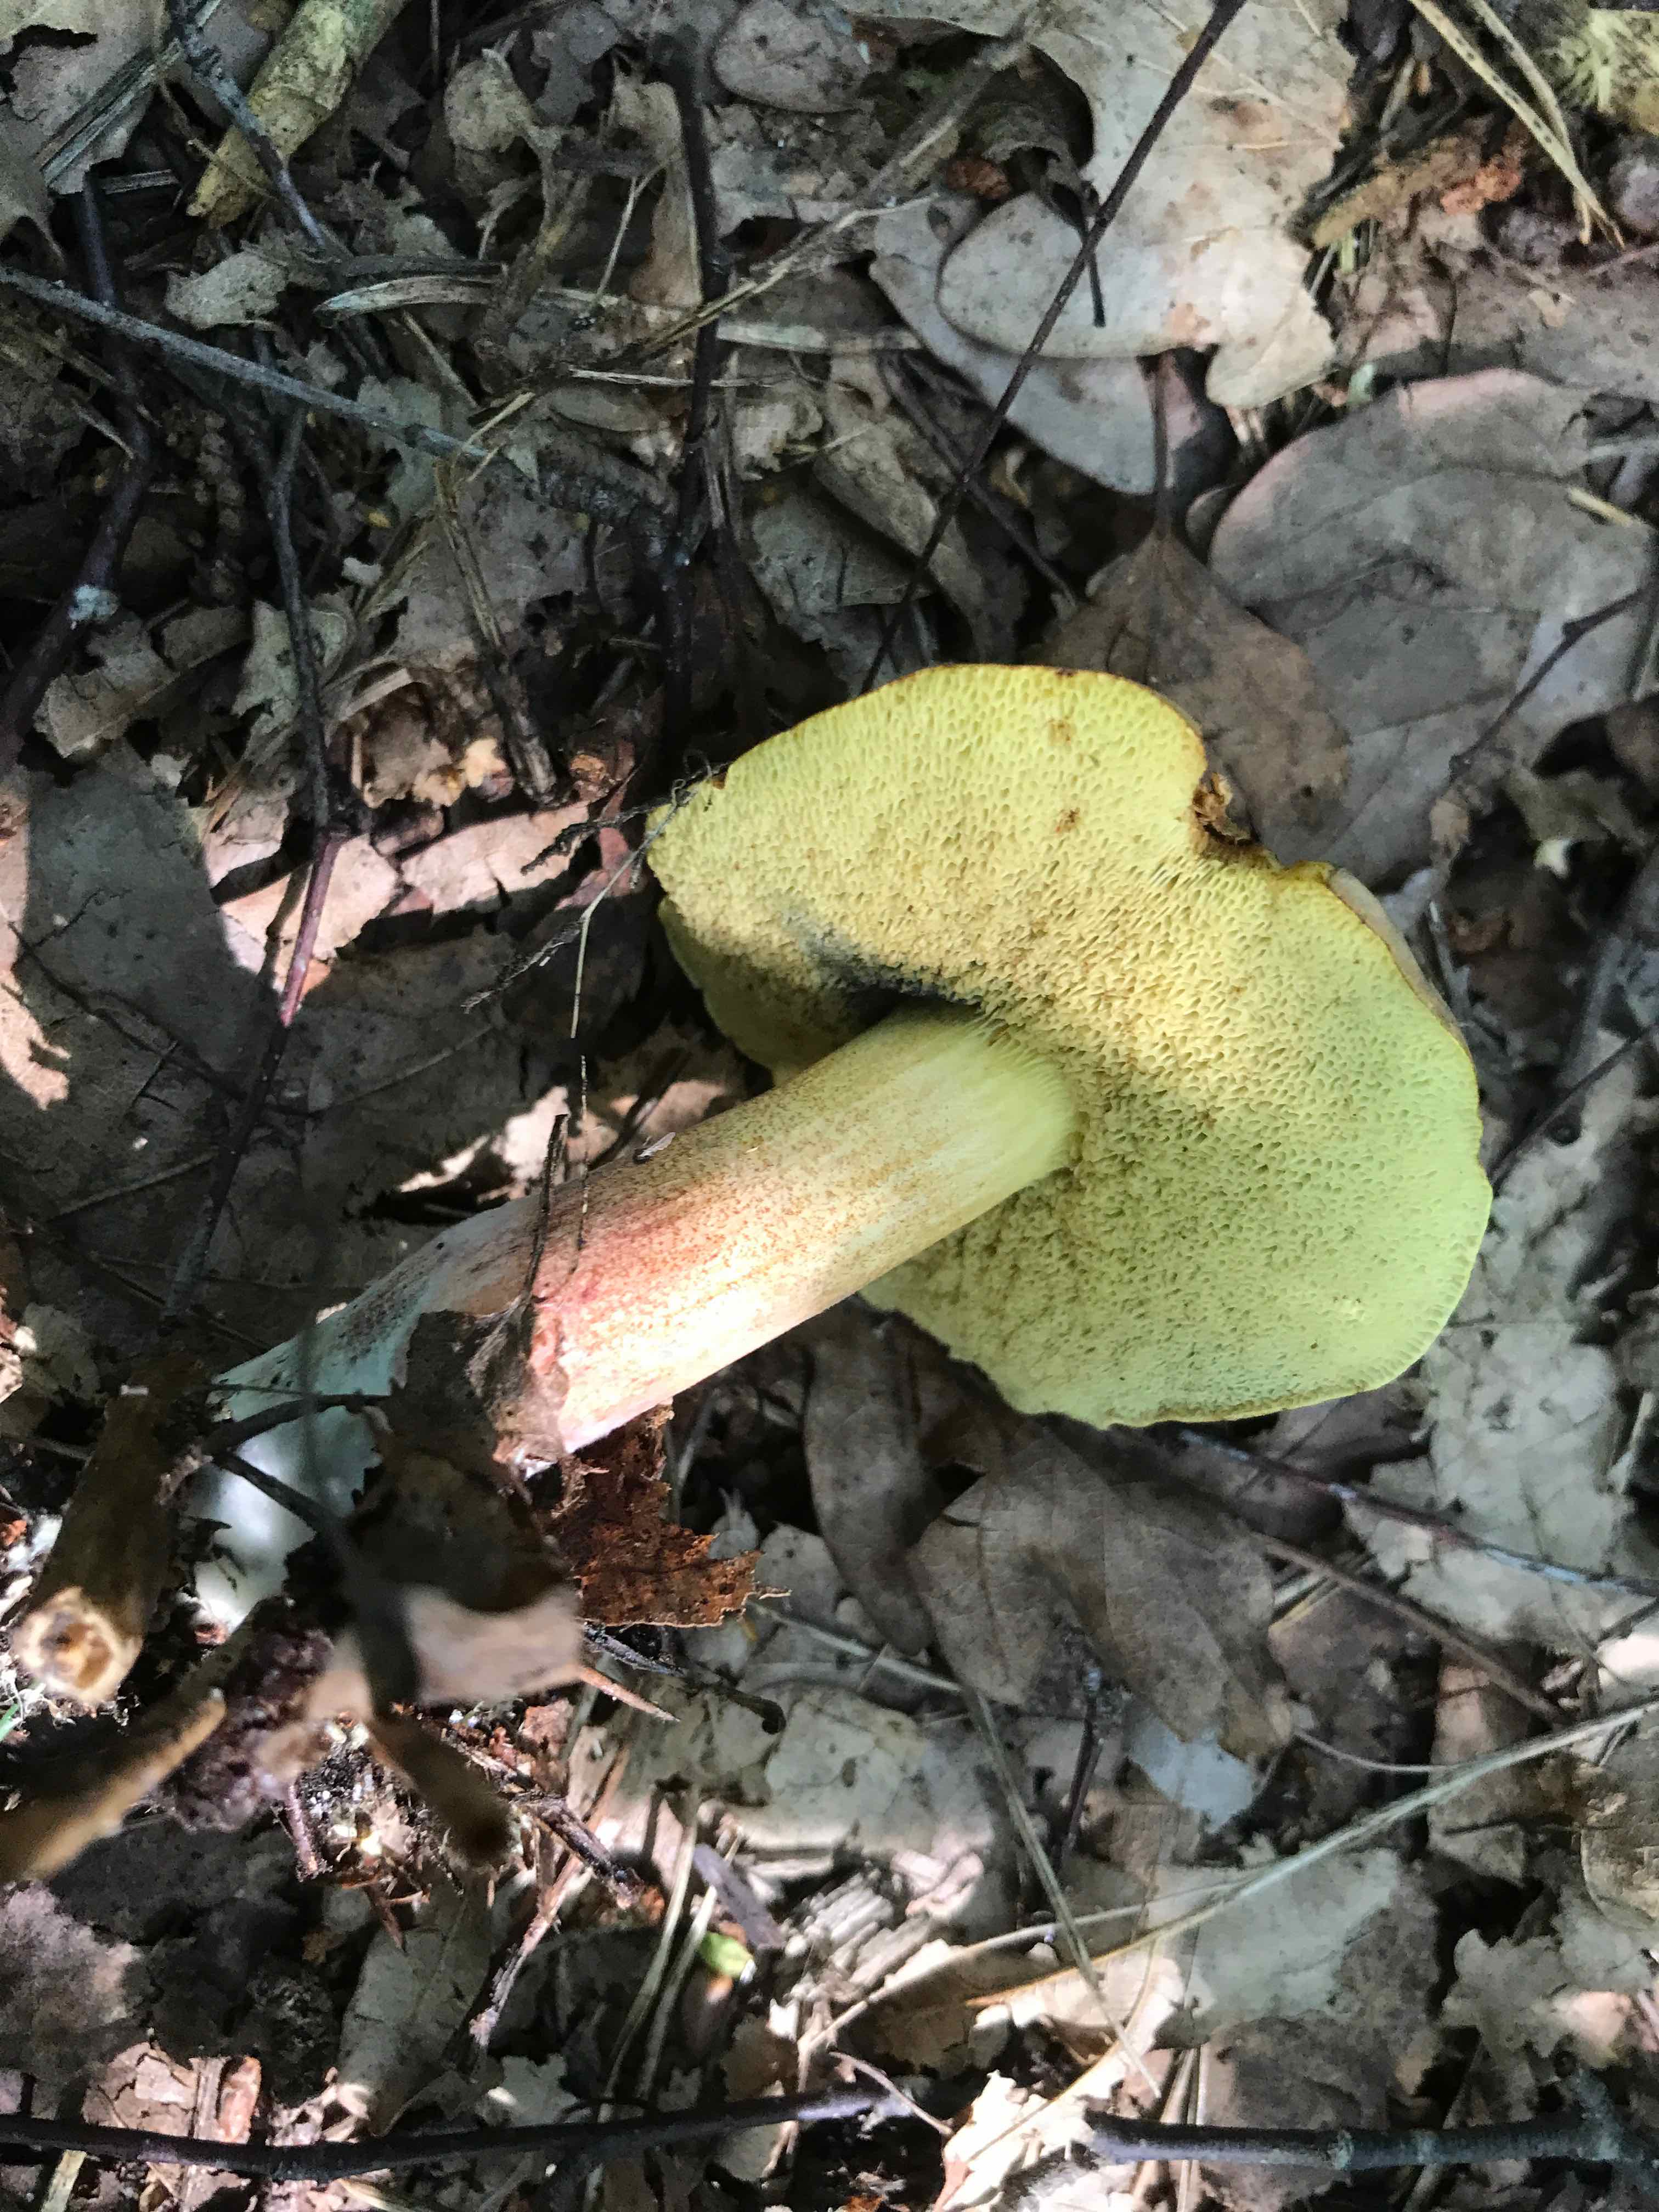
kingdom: Fungi
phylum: Basidiomycota
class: Agaricomycetes
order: Boletales
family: Boletaceae
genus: Xerocomellus
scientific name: Xerocomellus
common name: dværgrørhat
